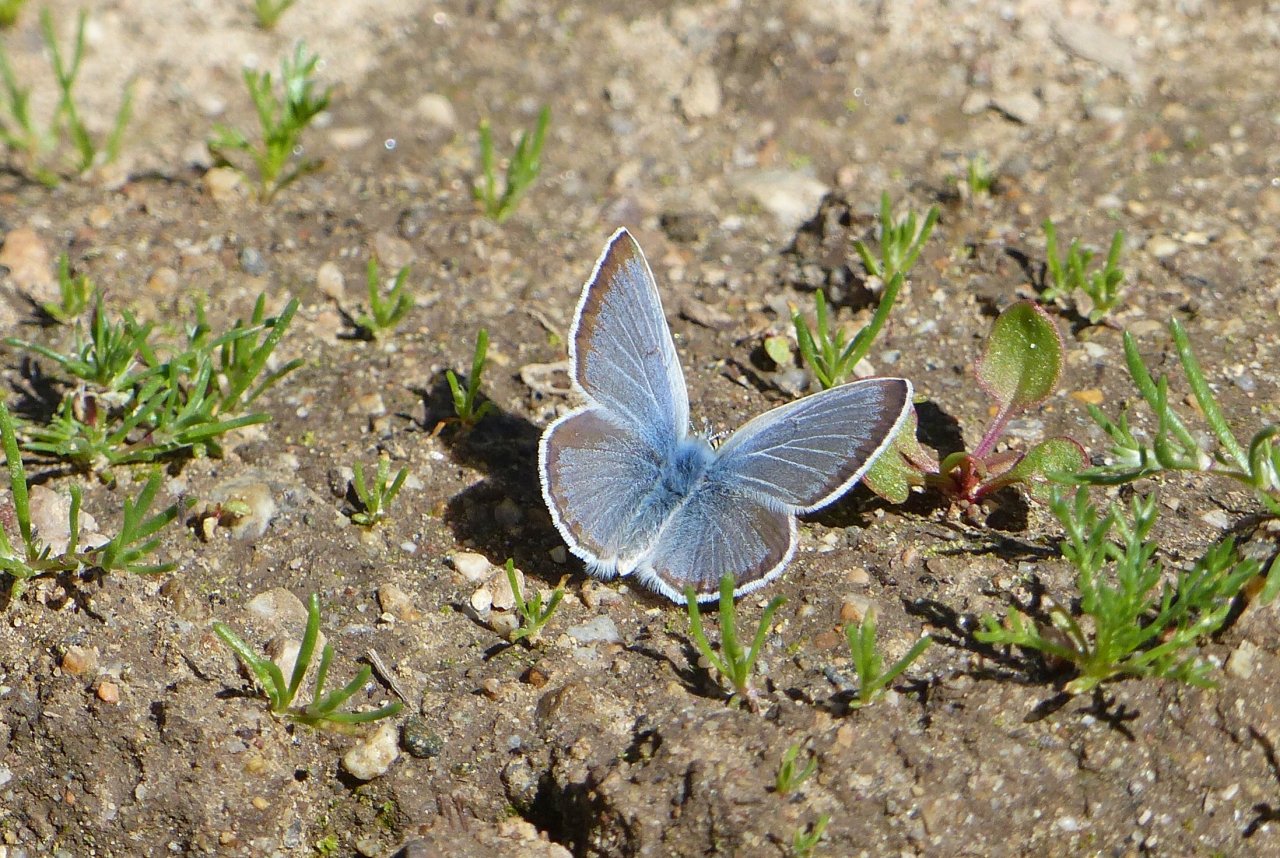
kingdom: Animalia
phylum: Arthropoda
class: Insecta
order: Lepidoptera
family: Lycaenidae
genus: Icaricia
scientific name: Icaricia icarioides
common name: Boisduval's Blue
